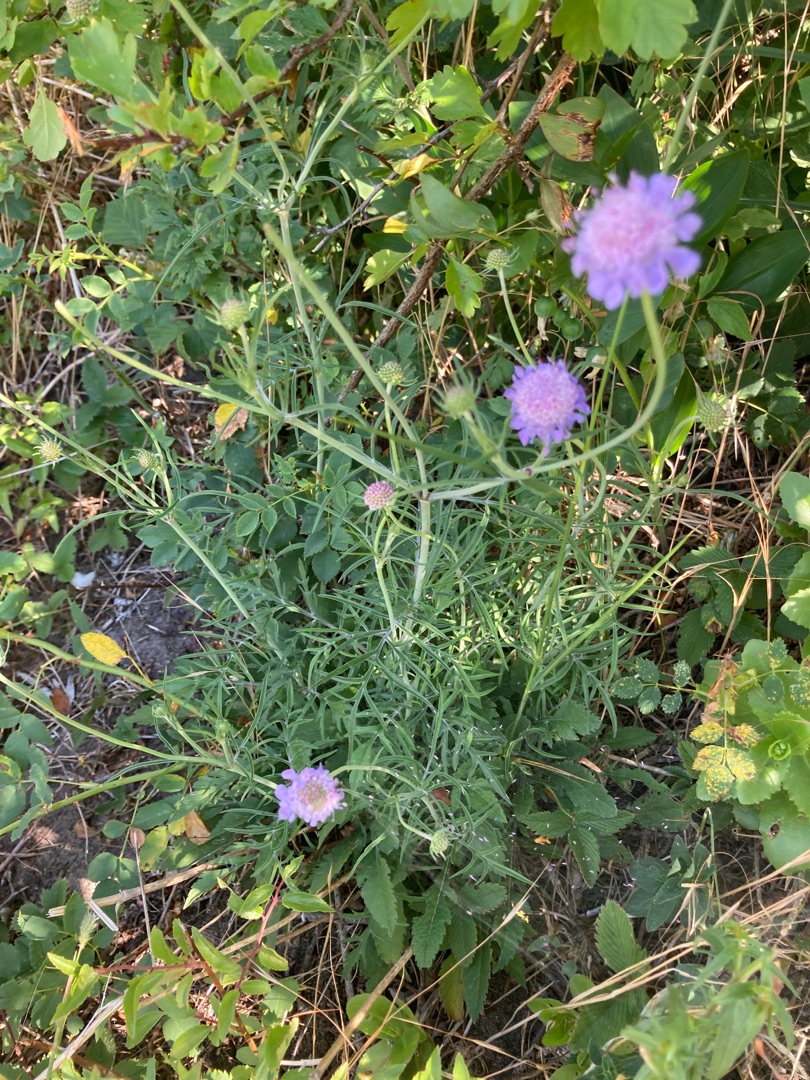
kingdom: Plantae
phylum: Tracheophyta
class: Magnoliopsida
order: Dipsacales
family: Caprifoliaceae
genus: Scabiosa
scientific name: Scabiosa columbaria
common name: Due-skabiose
